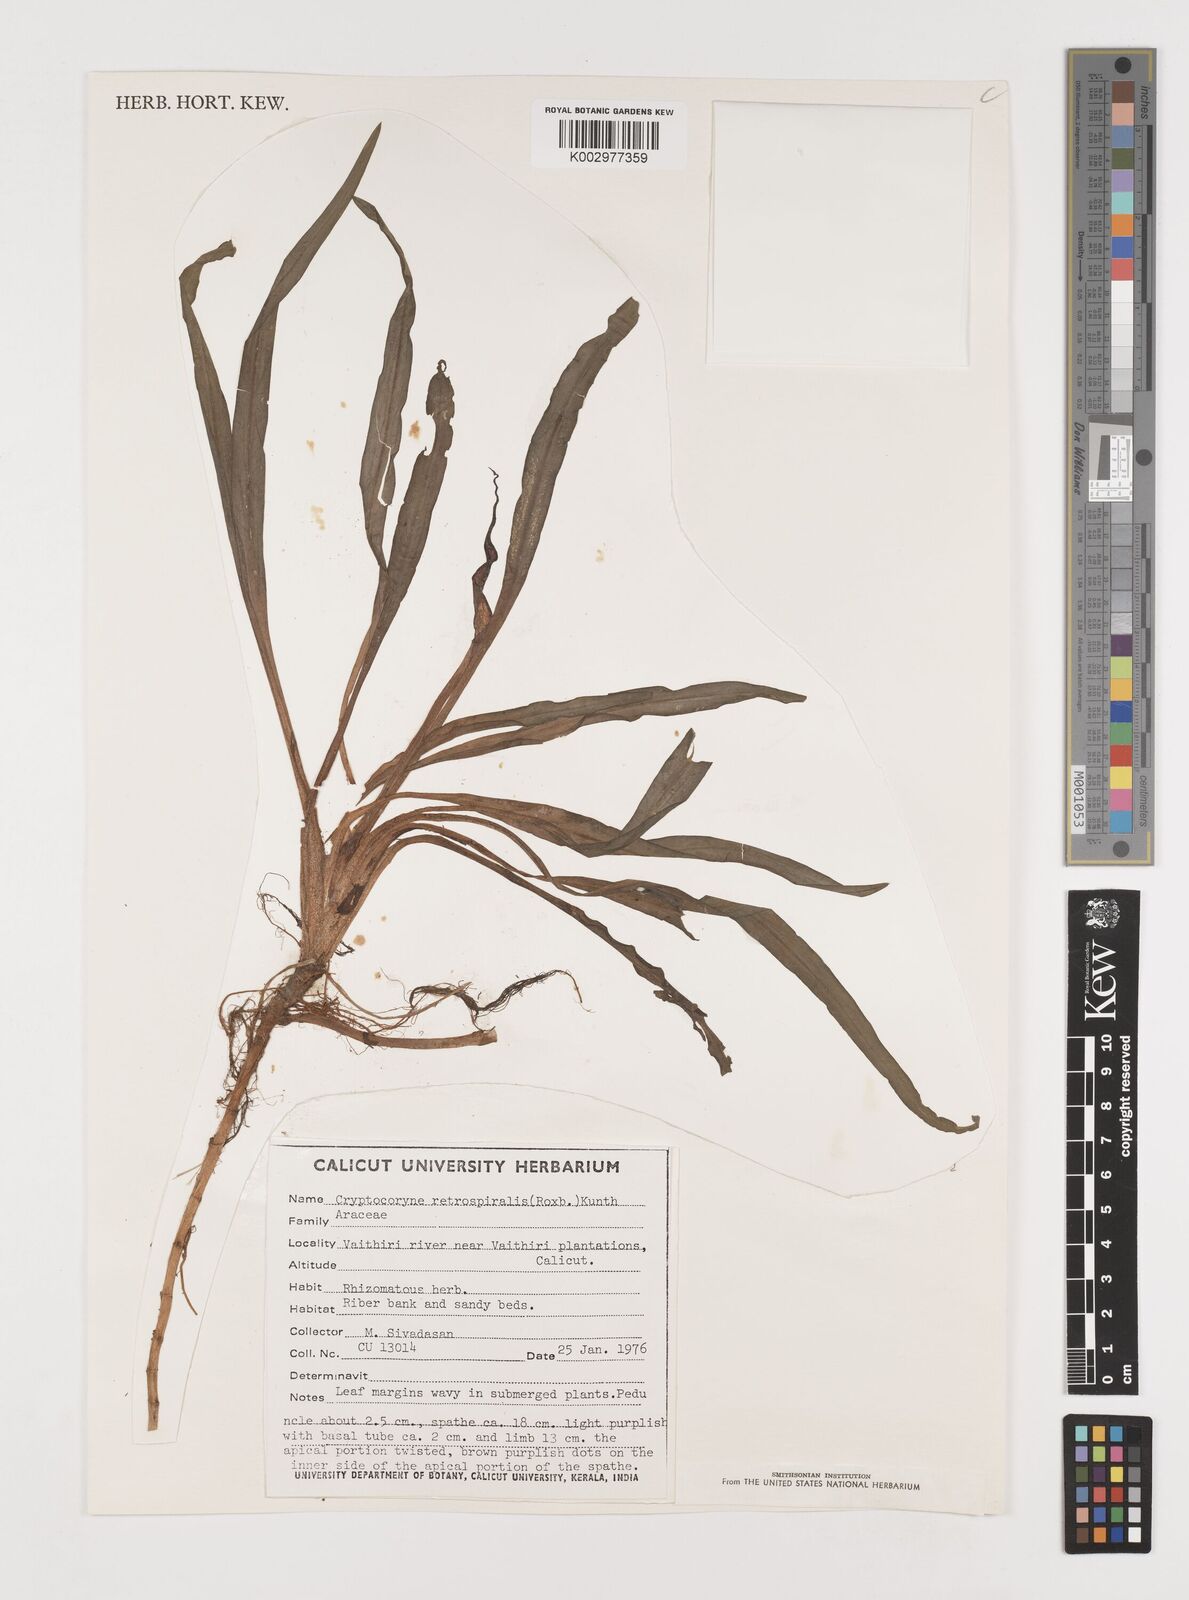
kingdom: Plantae
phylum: Tracheophyta
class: Liliopsida
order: Alismatales
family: Araceae
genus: Cryptocoryne
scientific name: Cryptocoryne retrospiralis
